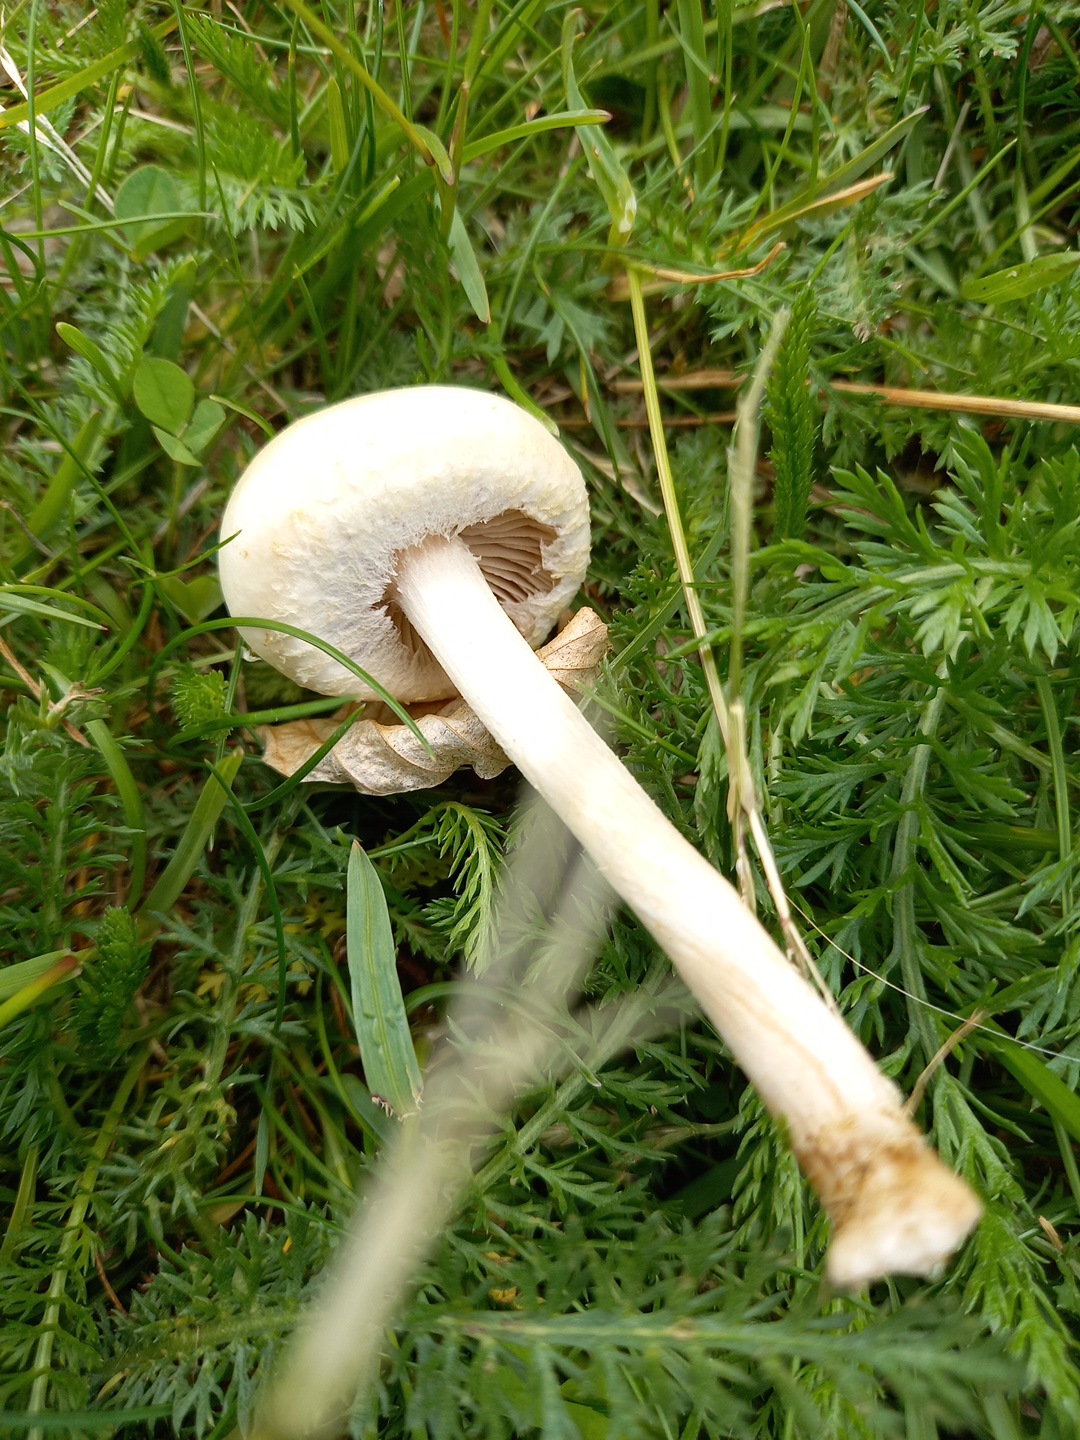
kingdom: Fungi
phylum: Basidiomycota
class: Agaricomycetes
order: Agaricales
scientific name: Agaricales
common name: champignonordenen
